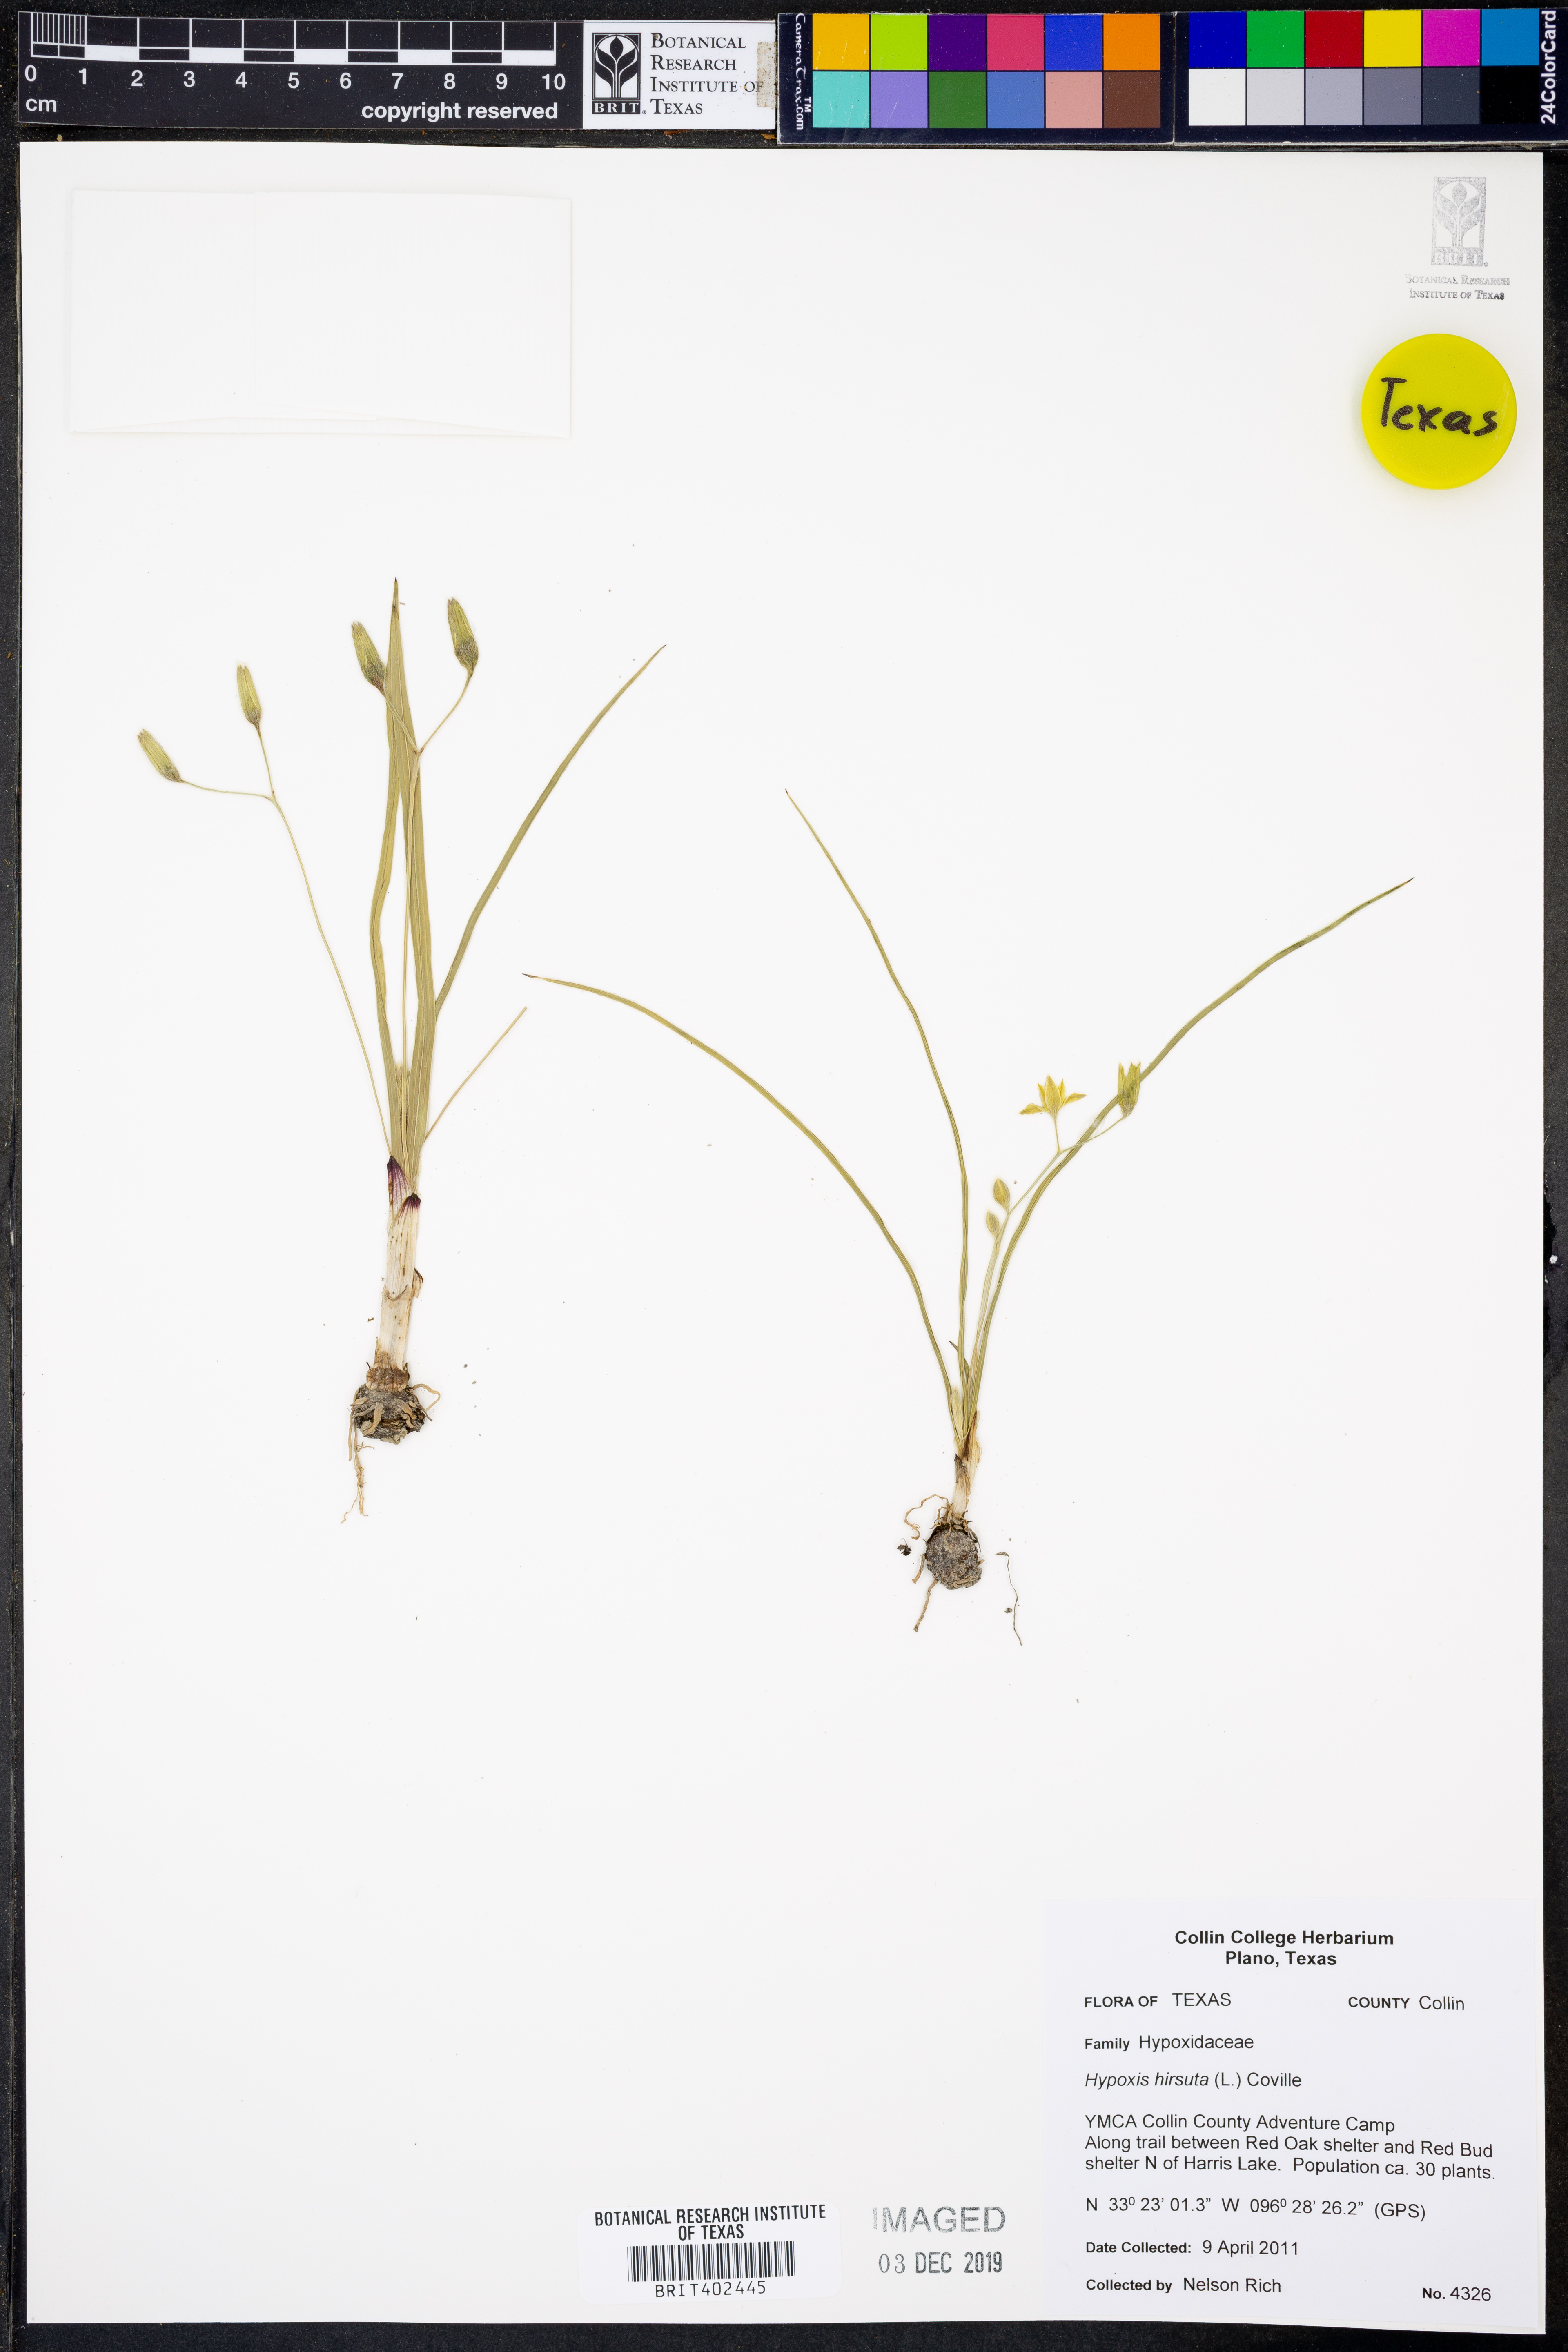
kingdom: Plantae
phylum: Tracheophyta
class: Liliopsida
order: Asparagales
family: Hypoxidaceae
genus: Hypoxis
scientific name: Hypoxis hirsuta
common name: Common goldstar
